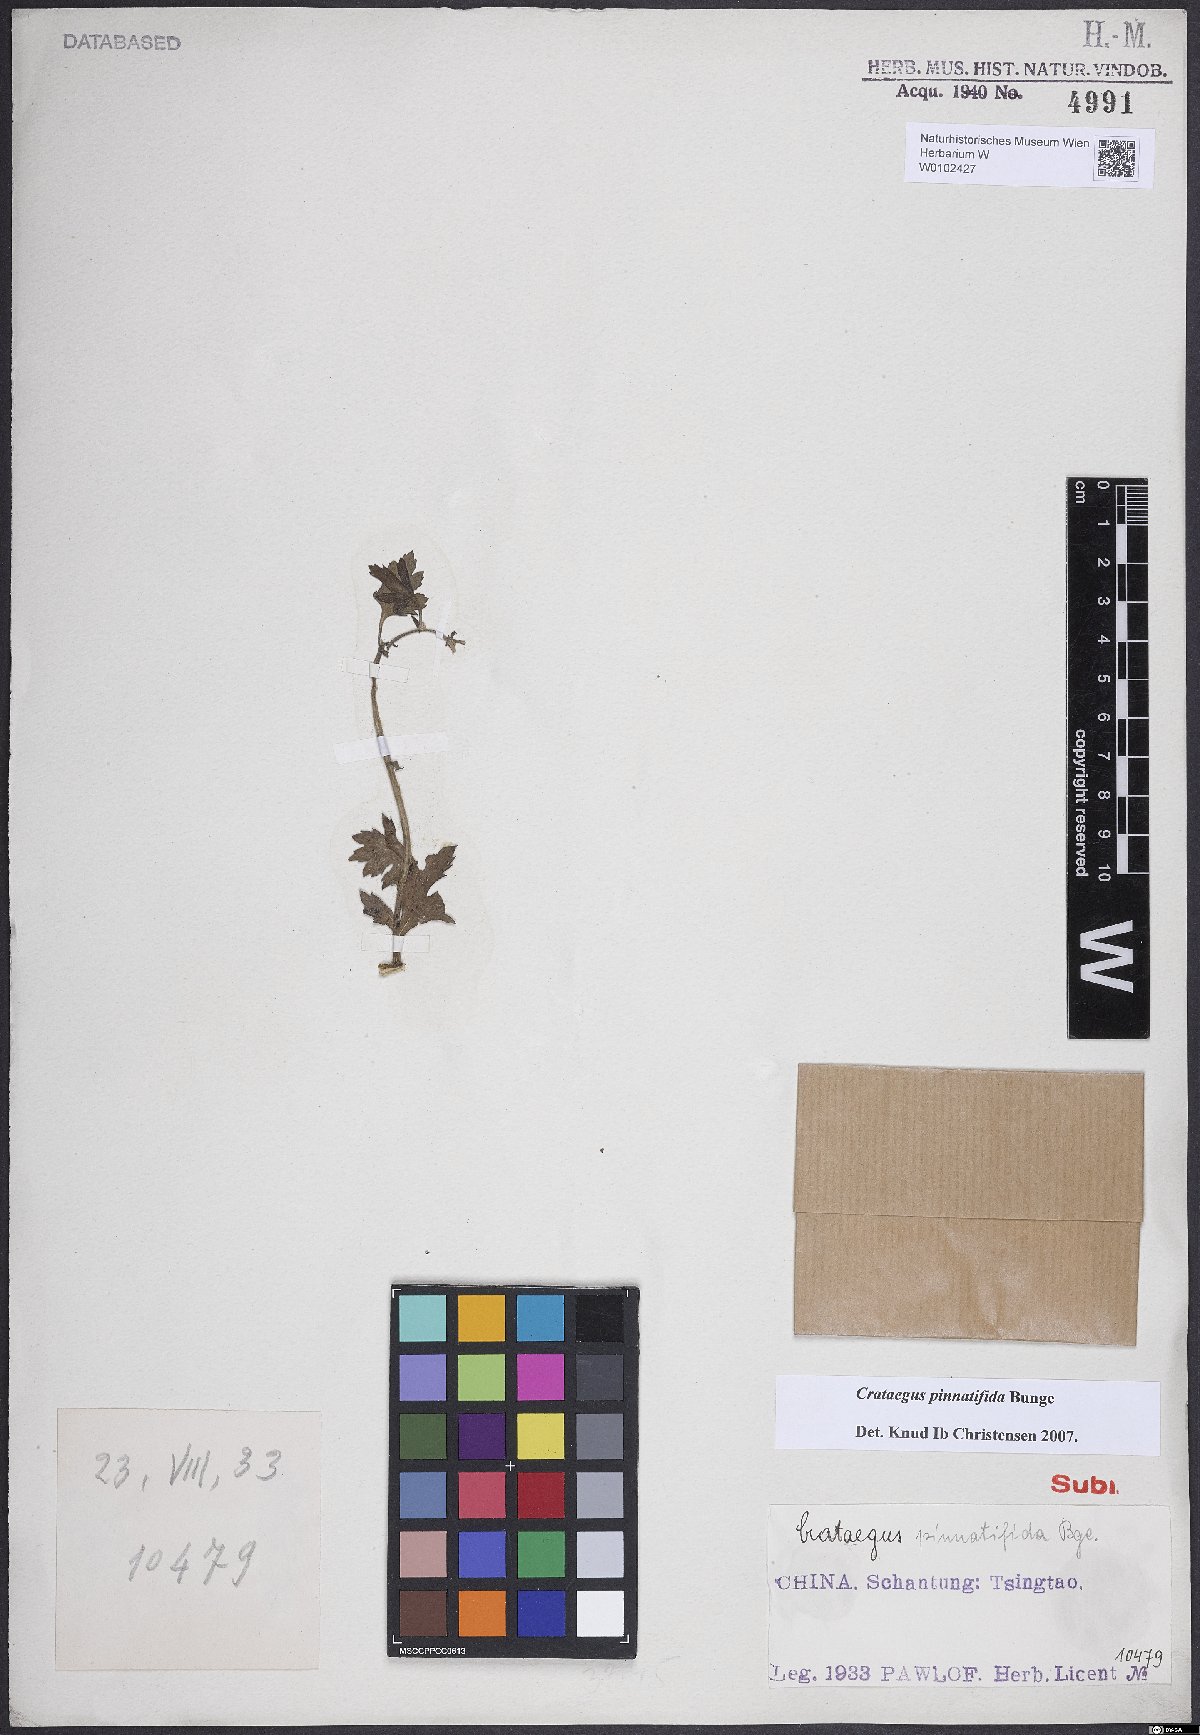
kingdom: Plantae
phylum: Tracheophyta
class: Magnoliopsida
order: Rosales
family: Rosaceae
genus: Crataegus
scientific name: Crataegus pinnatifida
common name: Chinese haw
